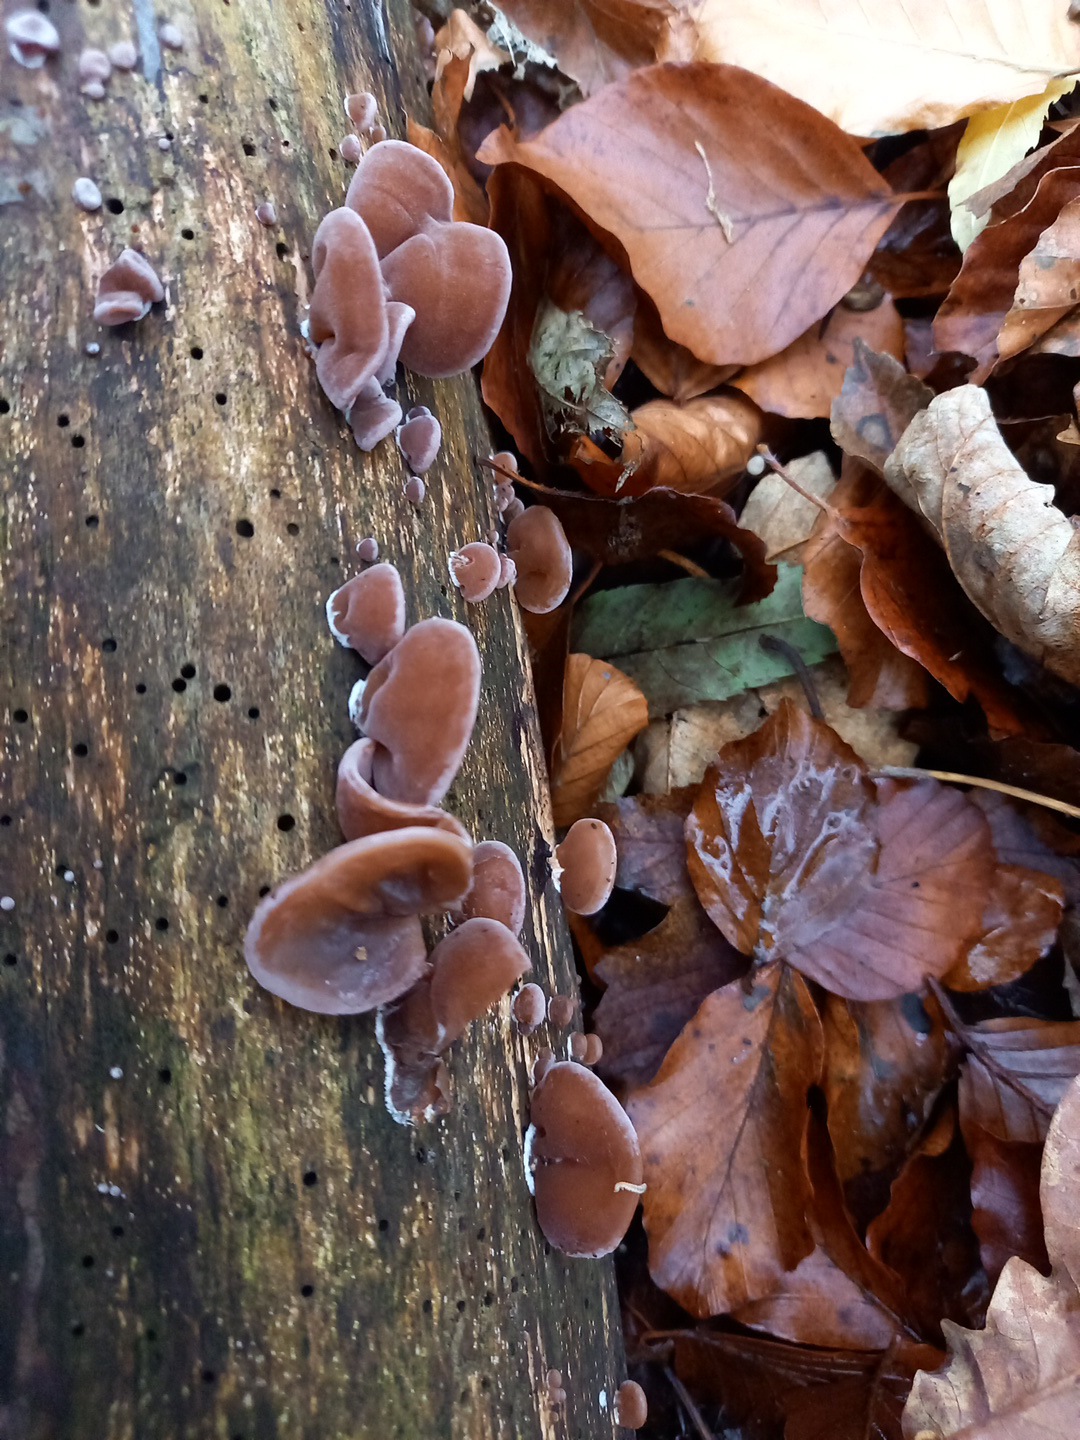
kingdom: Fungi
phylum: Basidiomycota
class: Agaricomycetes
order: Auriculariales
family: Auriculariaceae
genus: Auricularia
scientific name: Auricularia auricula-judae
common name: almindelig judasøre
